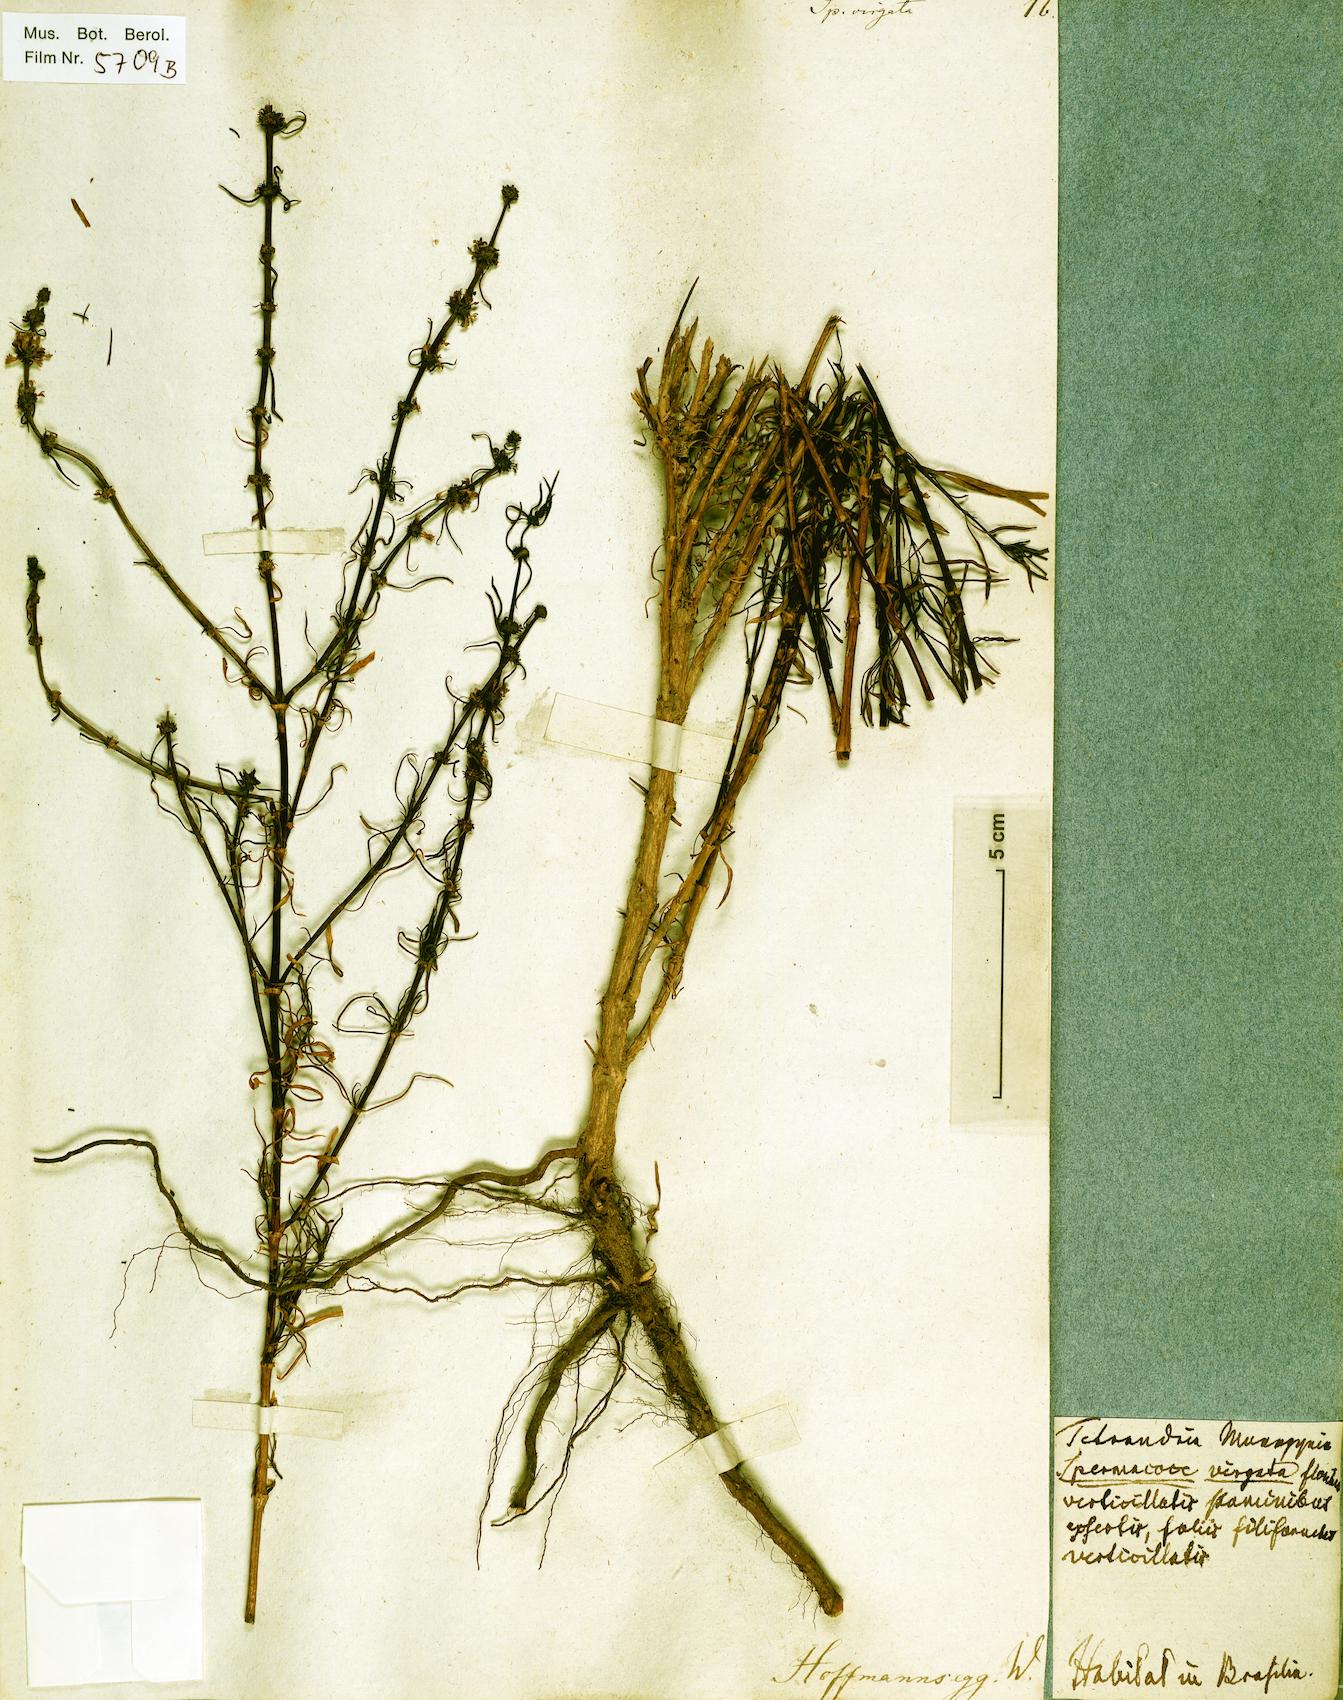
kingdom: Plantae
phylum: Tracheophyta
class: Magnoliopsida
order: Gentianales
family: Rubiaceae
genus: Staelia
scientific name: Staelia virgata
